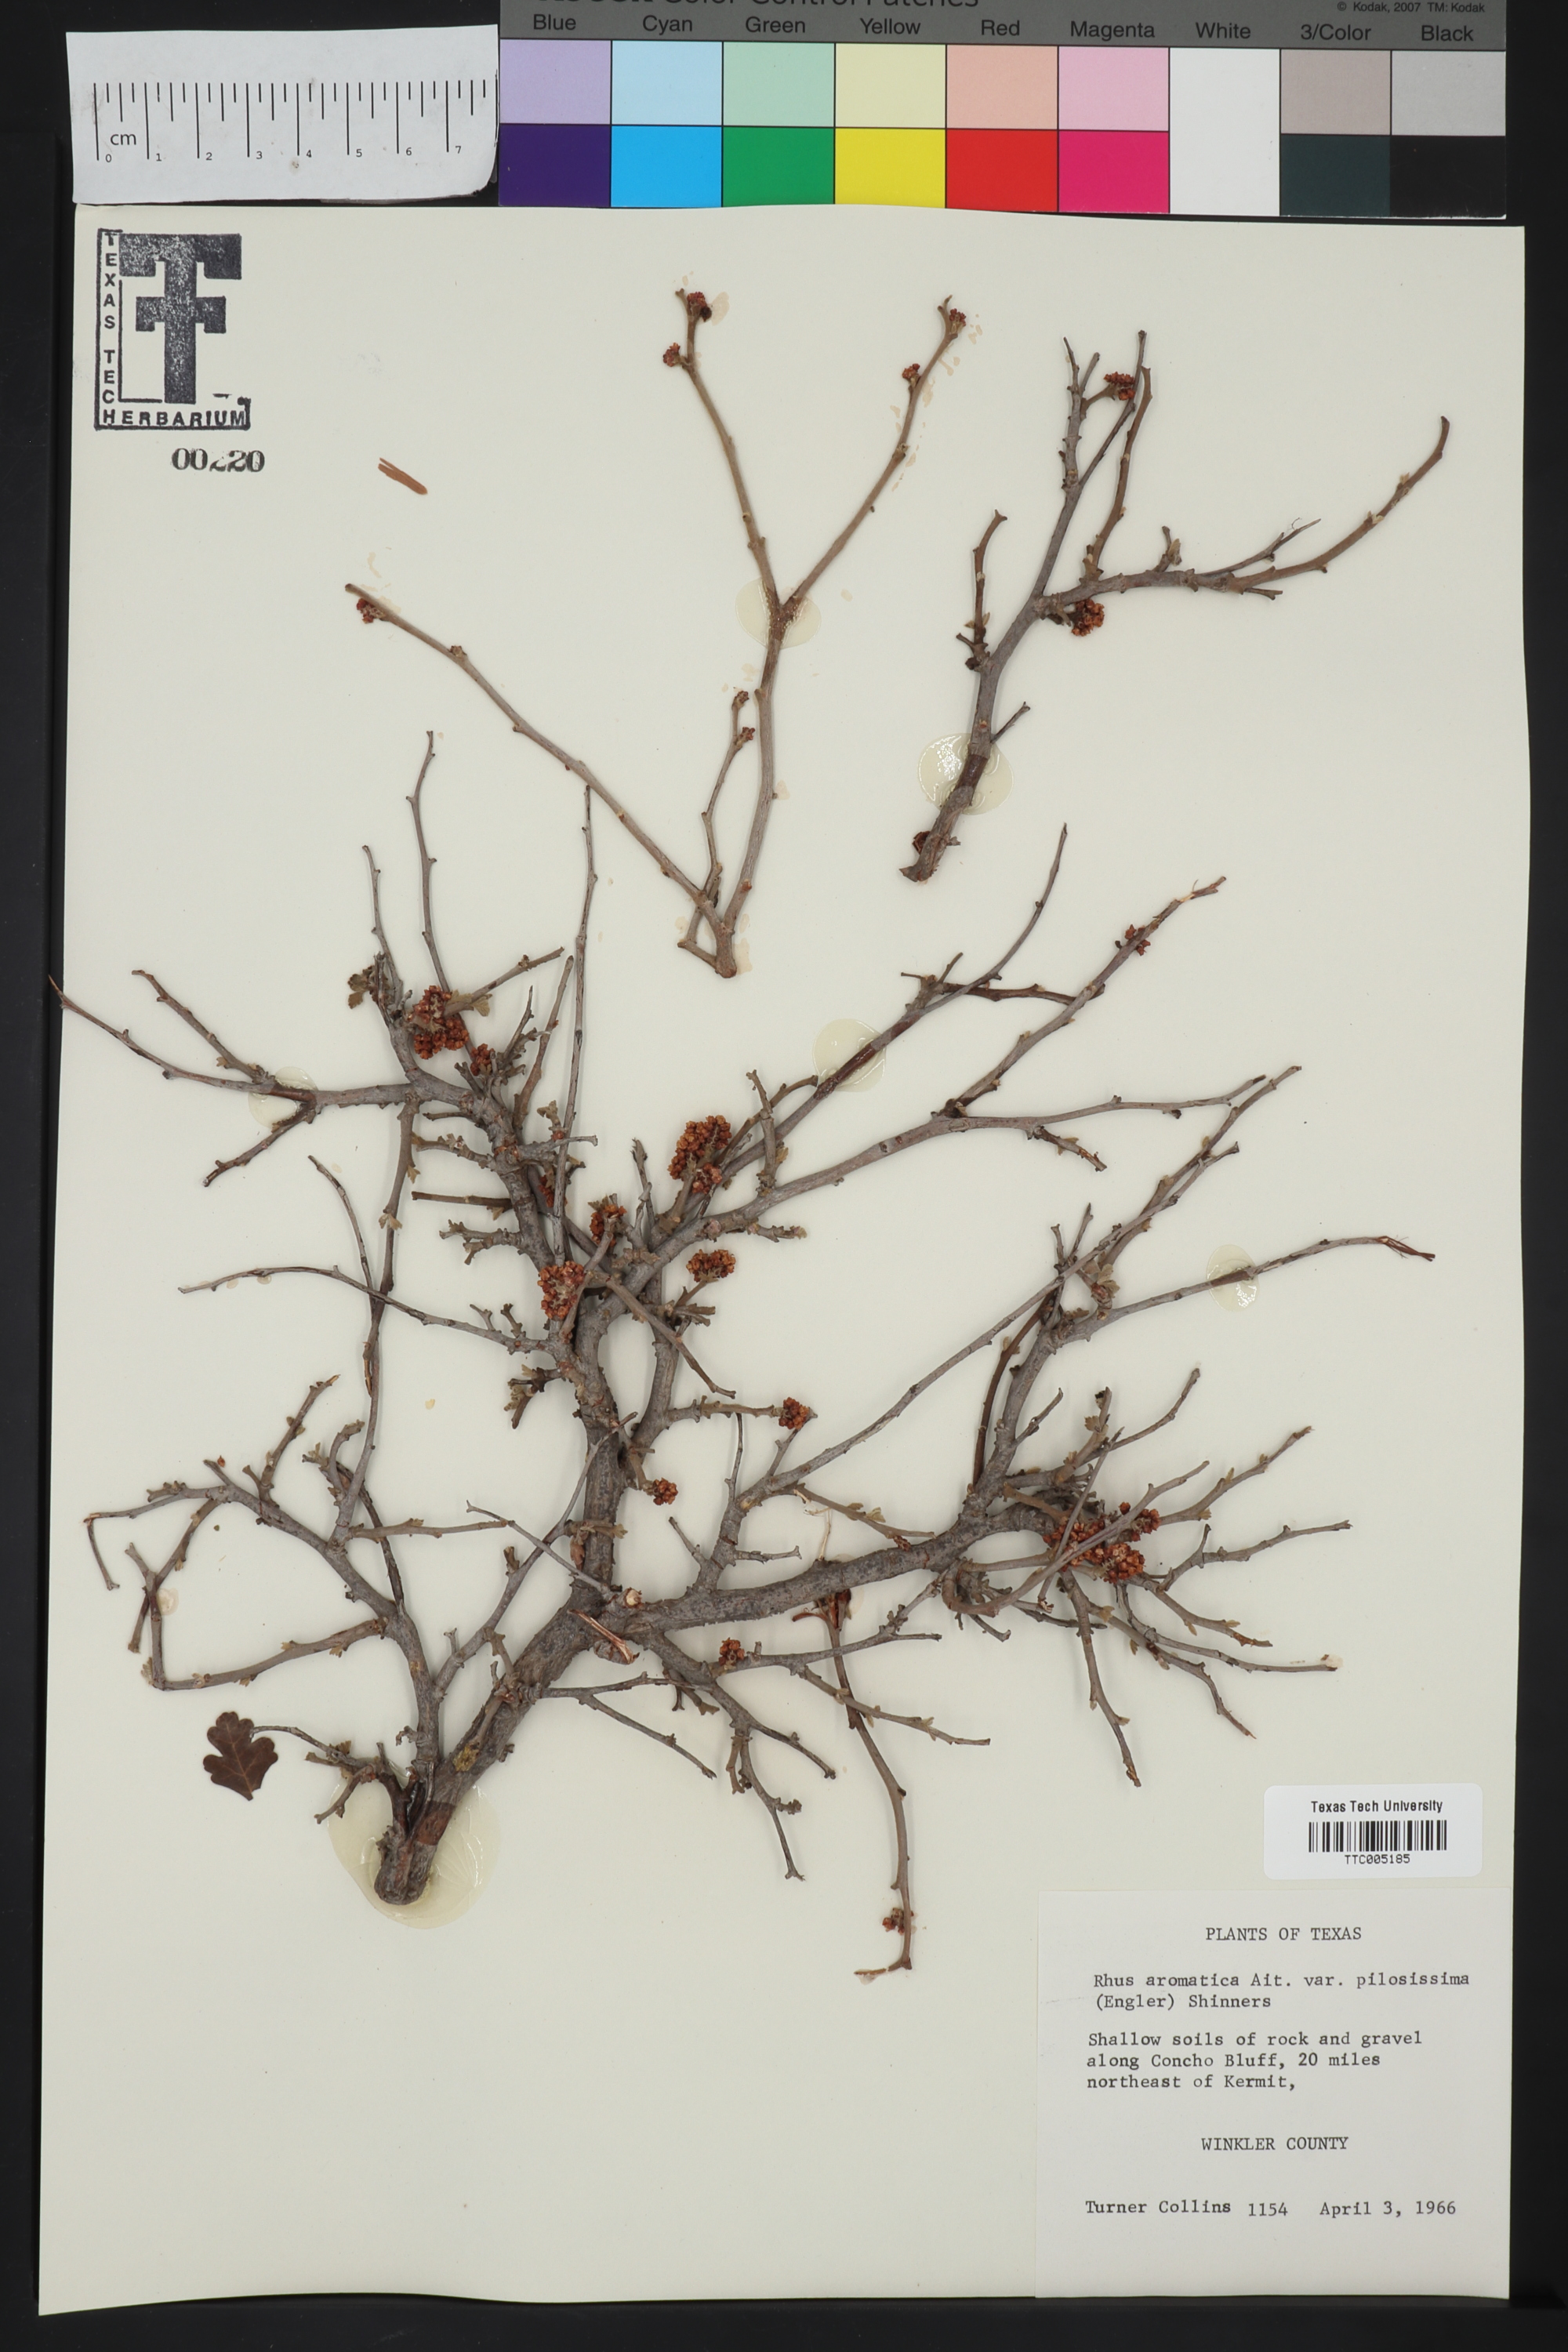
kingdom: Plantae
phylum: Tracheophyta
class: Magnoliopsida
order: Sapindales
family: Anacardiaceae
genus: Rhus
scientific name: Rhus trilobata
